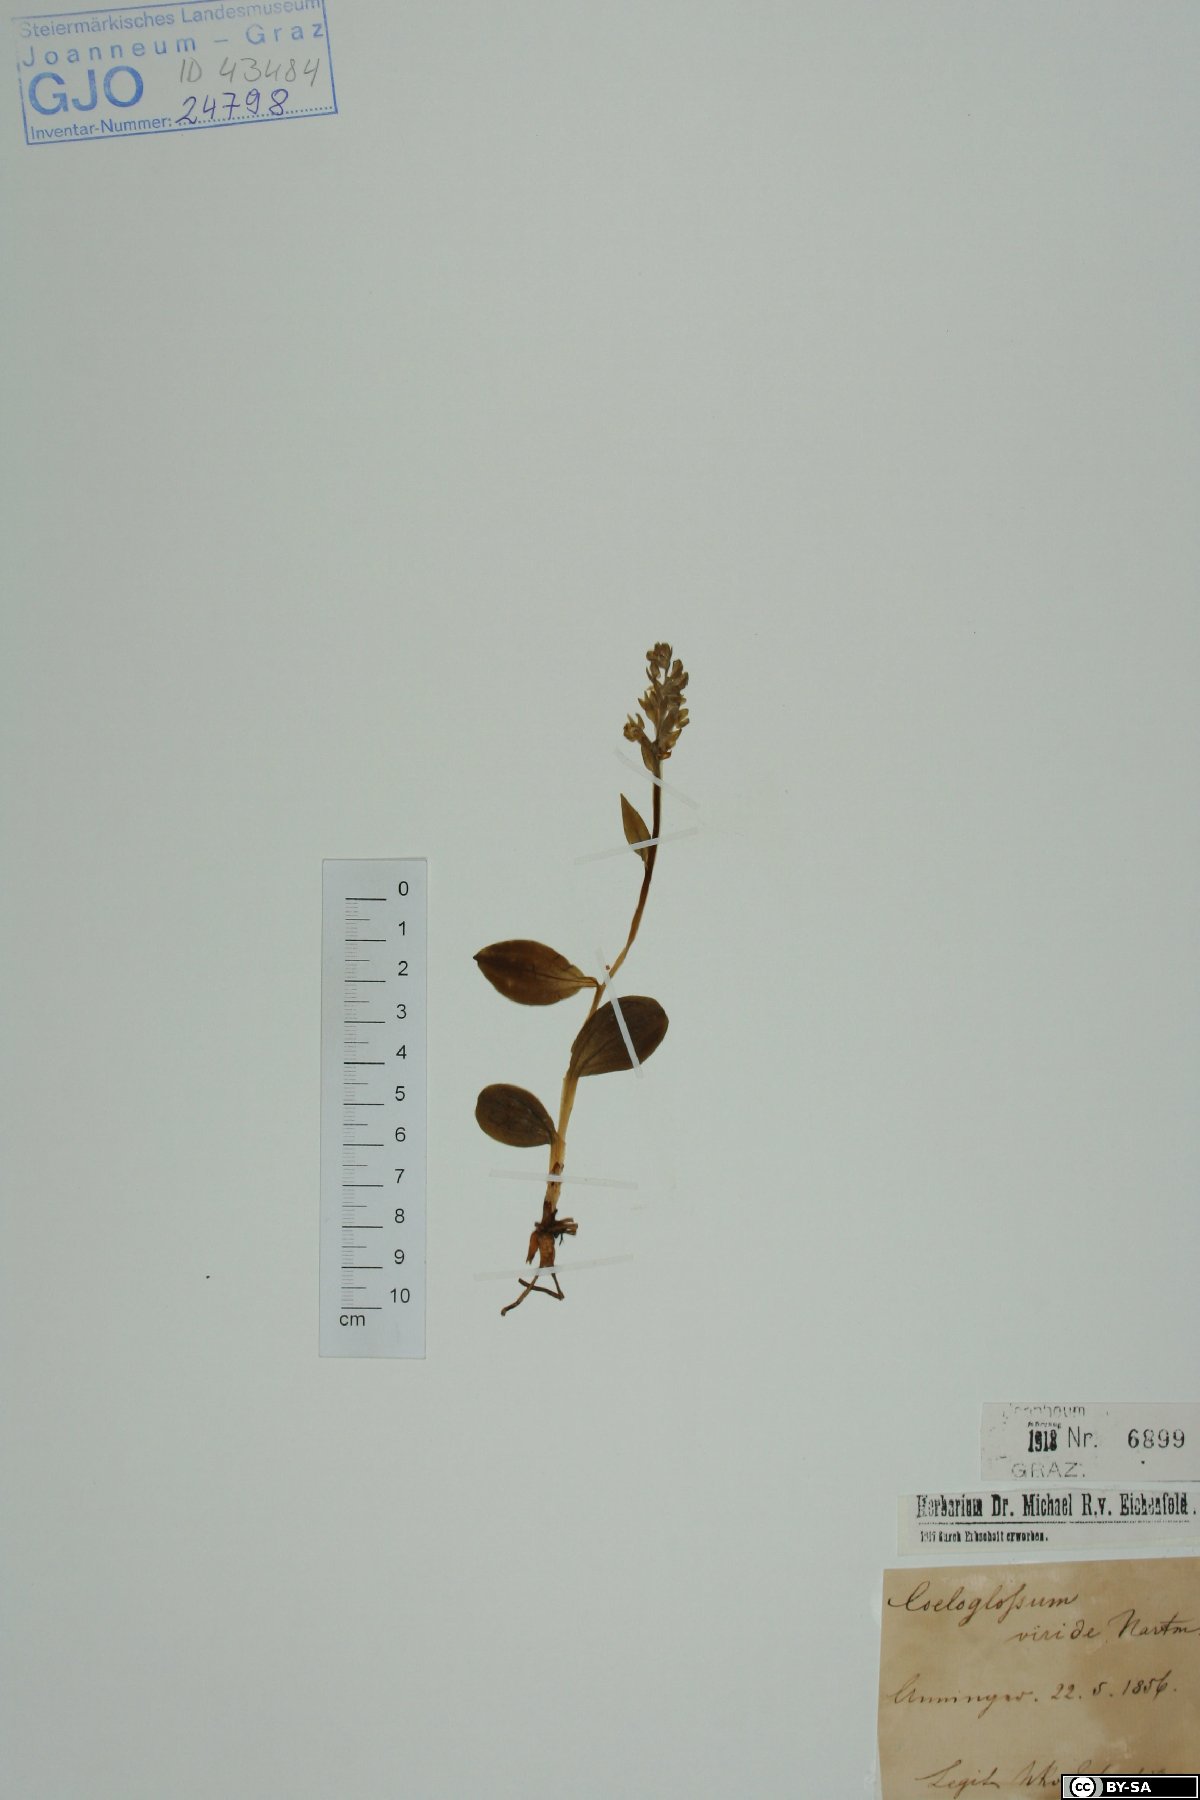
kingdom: Plantae
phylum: Tracheophyta
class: Liliopsida
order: Asparagales
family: Orchidaceae
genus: Dactylorhiza
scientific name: Dactylorhiza viridis
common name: Longbract frog orchid
